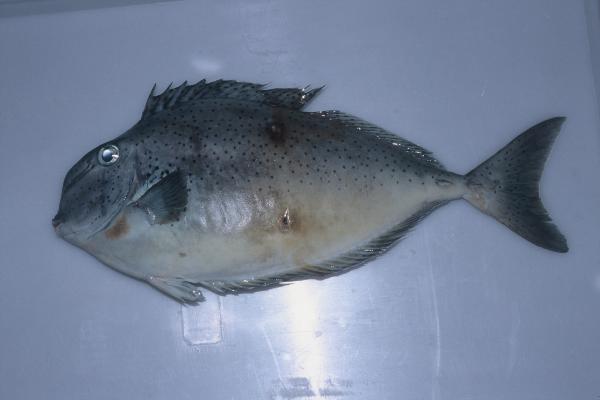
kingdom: Animalia
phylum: Chordata
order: Perciformes
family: Acanthuridae
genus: Naso
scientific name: Naso tuberosus
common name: Humpnose unicornfish
